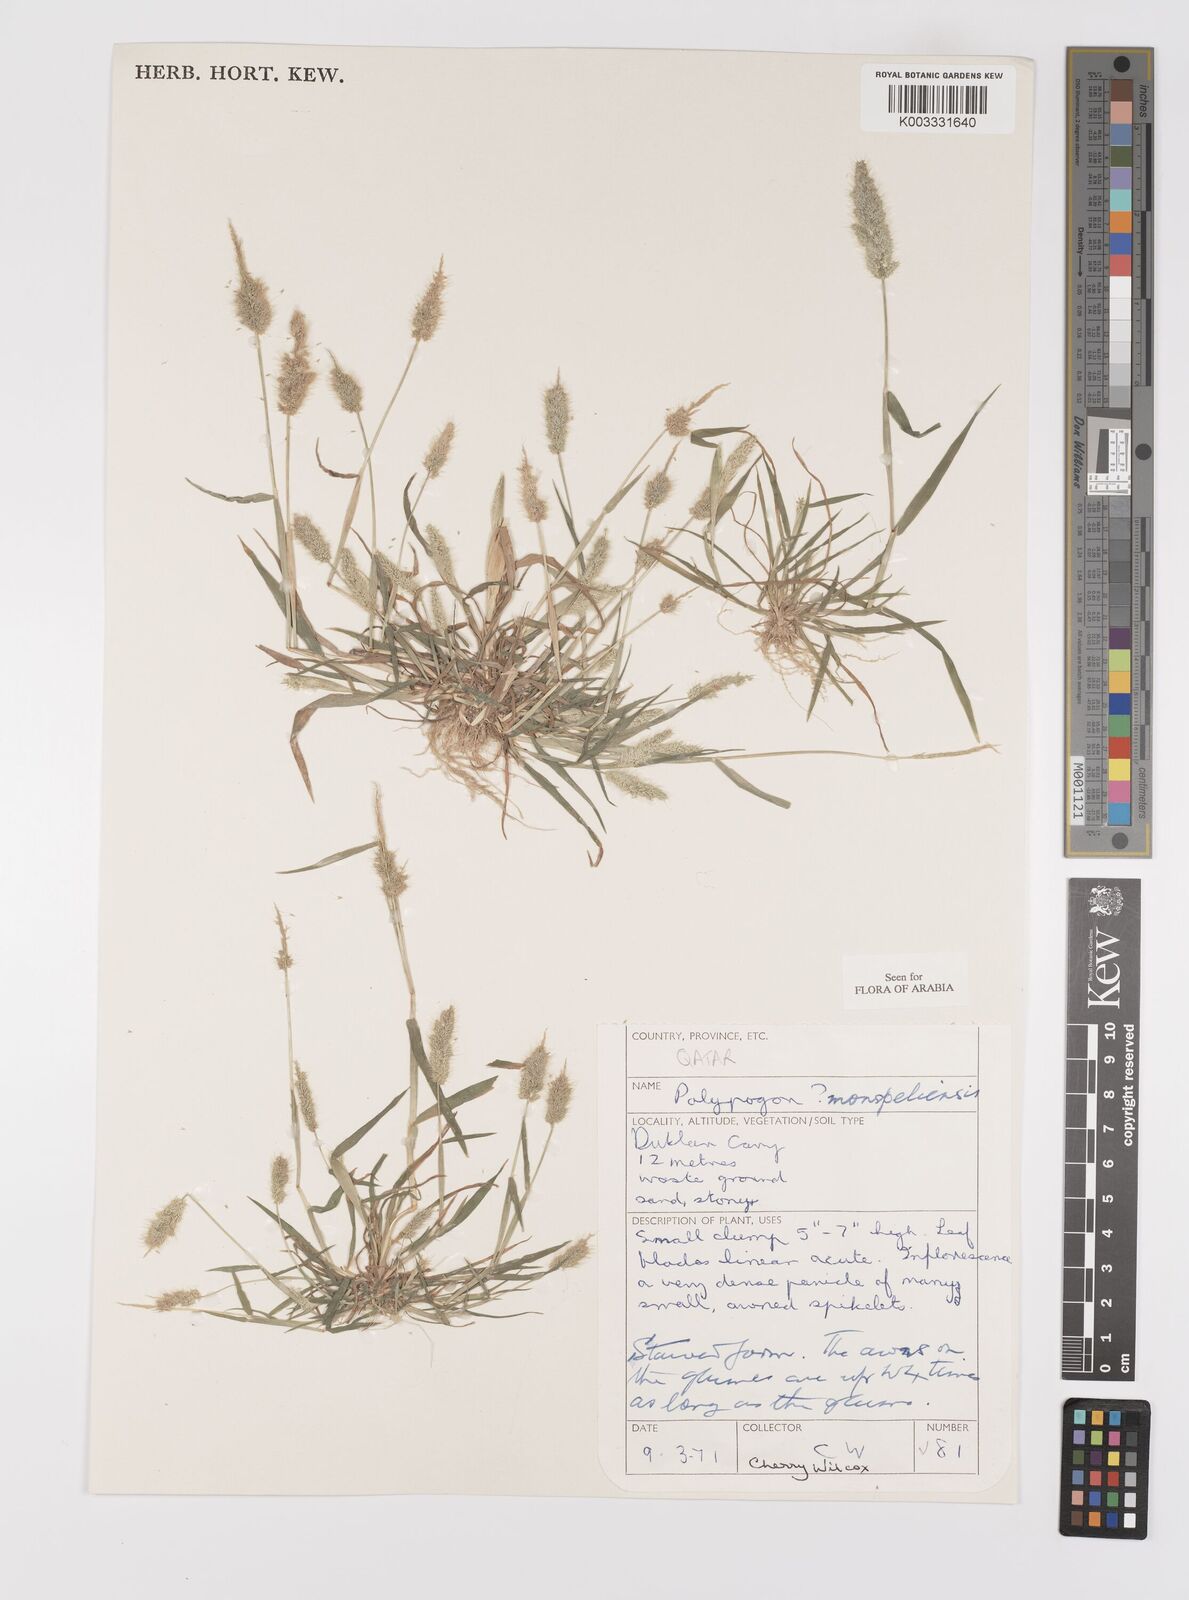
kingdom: Plantae
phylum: Tracheophyta
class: Liliopsida
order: Poales
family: Poaceae
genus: Polypogon
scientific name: Polypogon monspeliensis
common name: Annual rabbitsfoot grass
